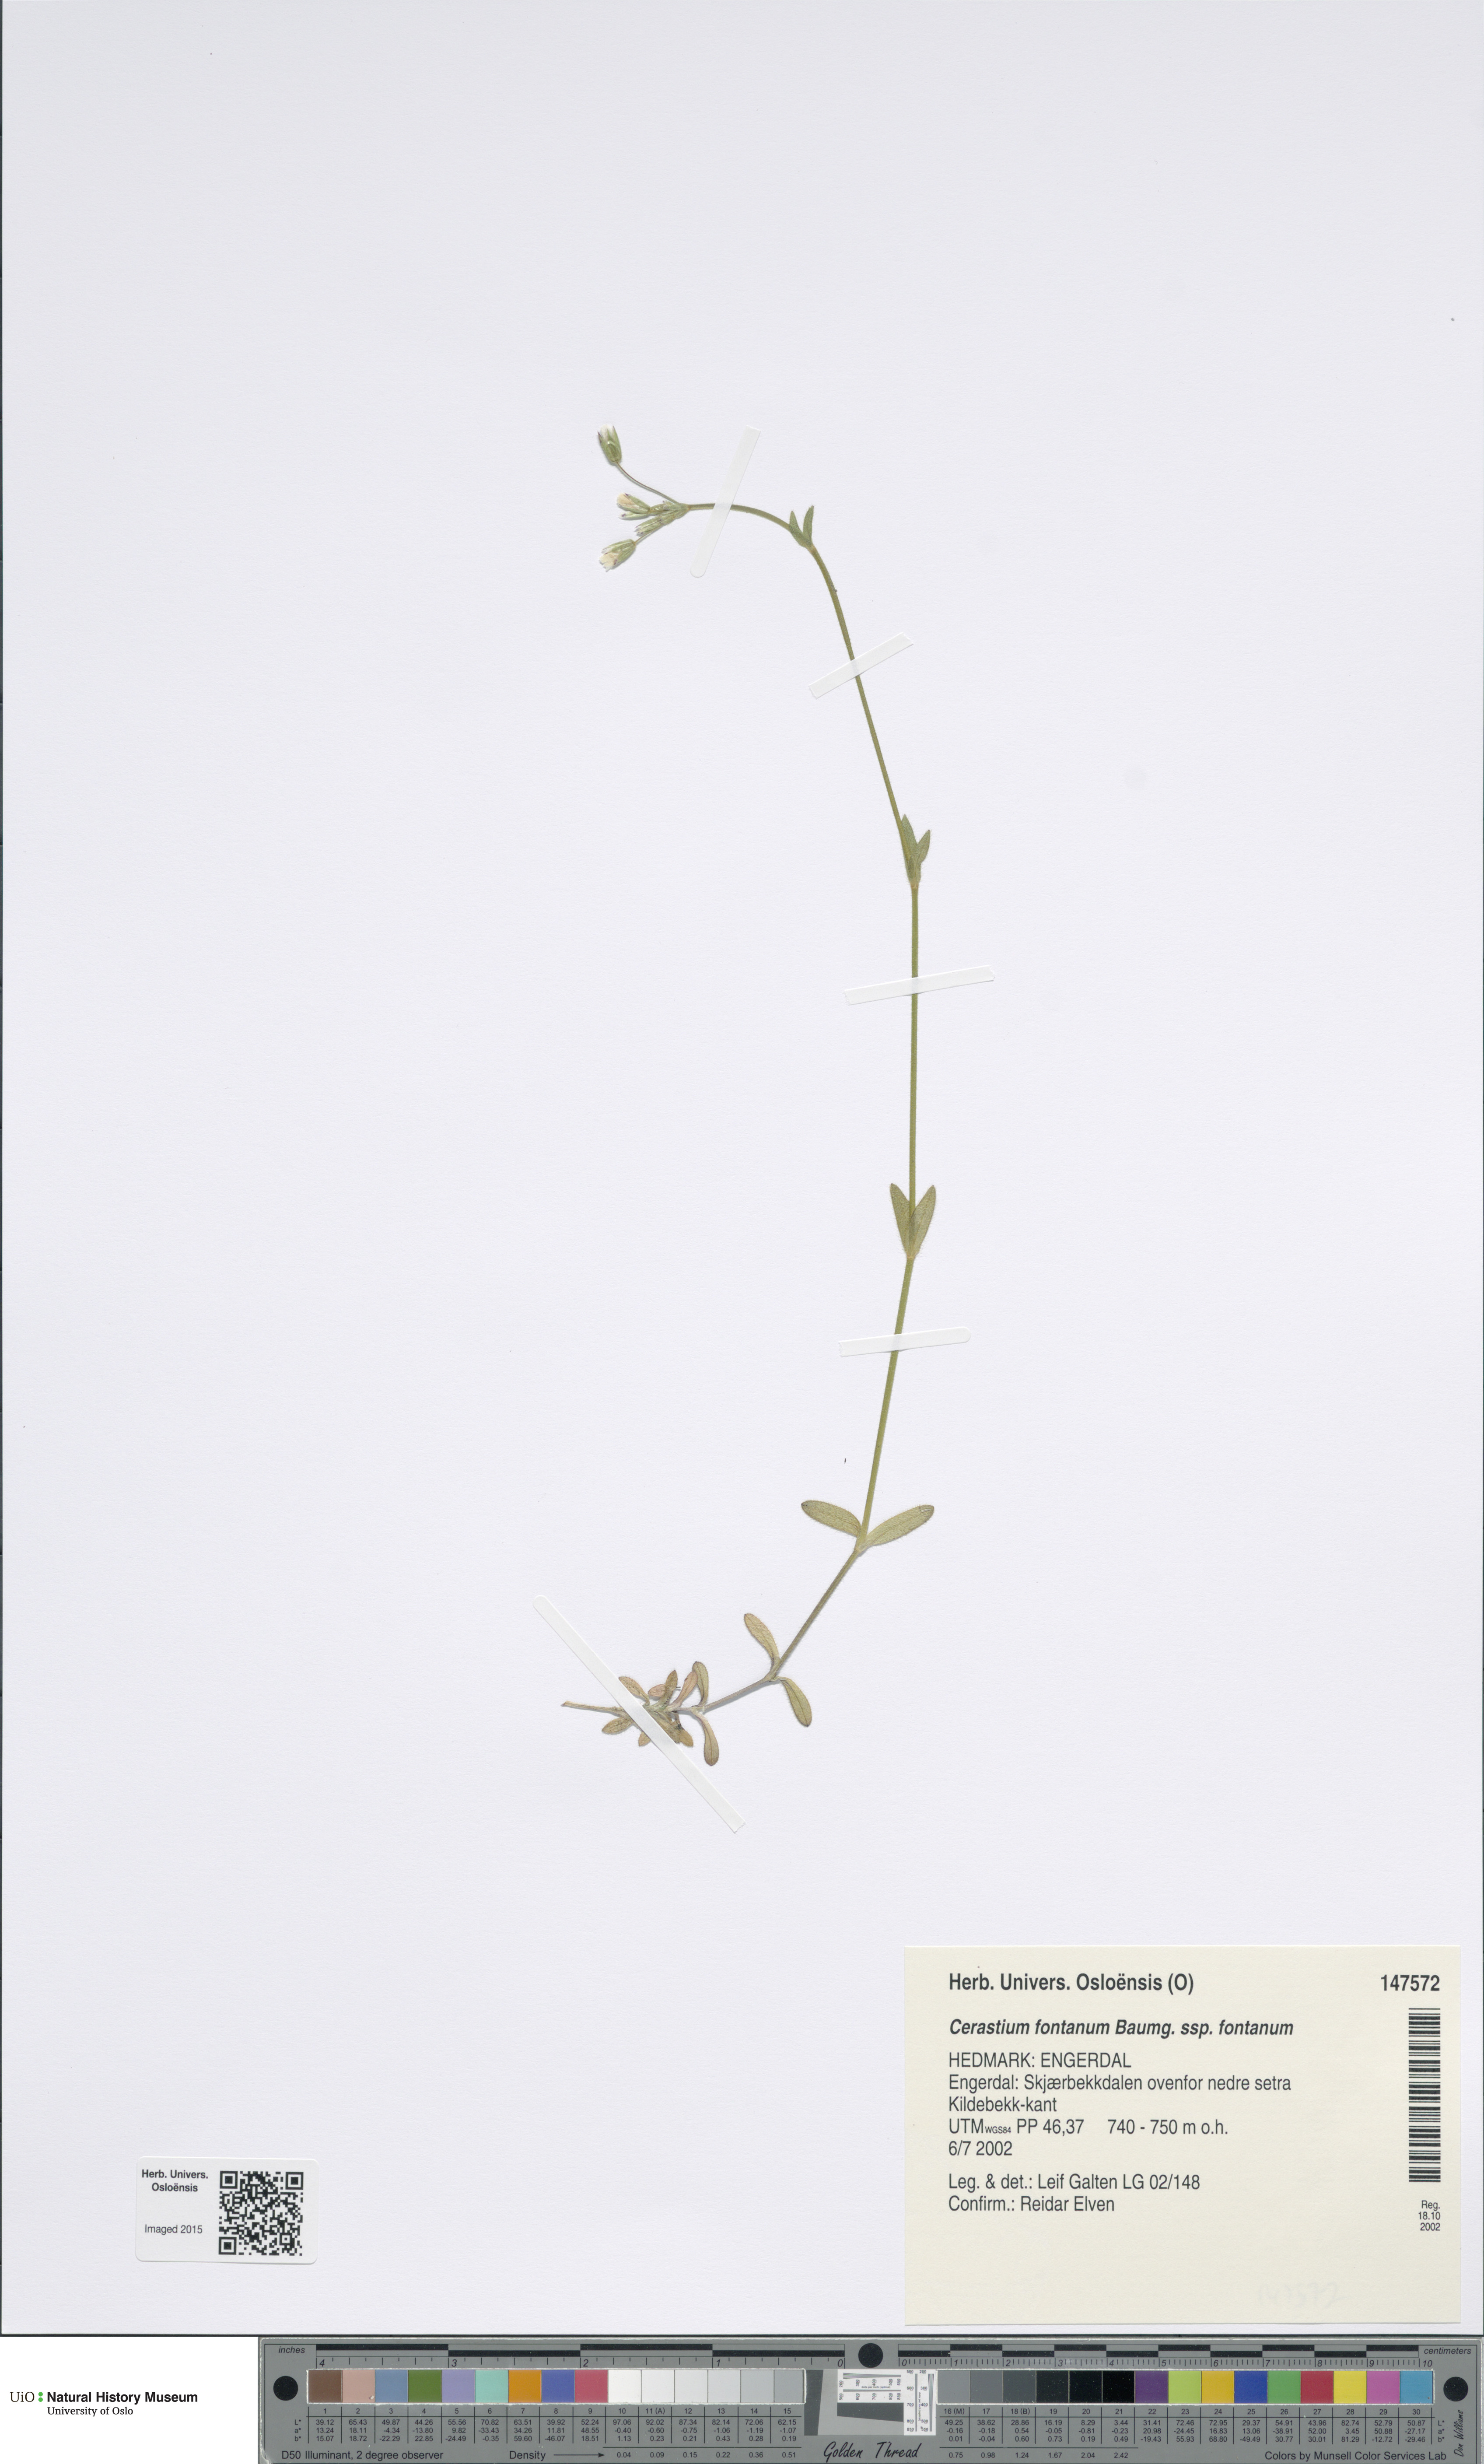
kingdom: Plantae
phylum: Tracheophyta
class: Magnoliopsida
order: Caryophyllales
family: Caryophyllaceae
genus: Cerastium
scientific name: Cerastium fontanum
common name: Common mouse-ear
